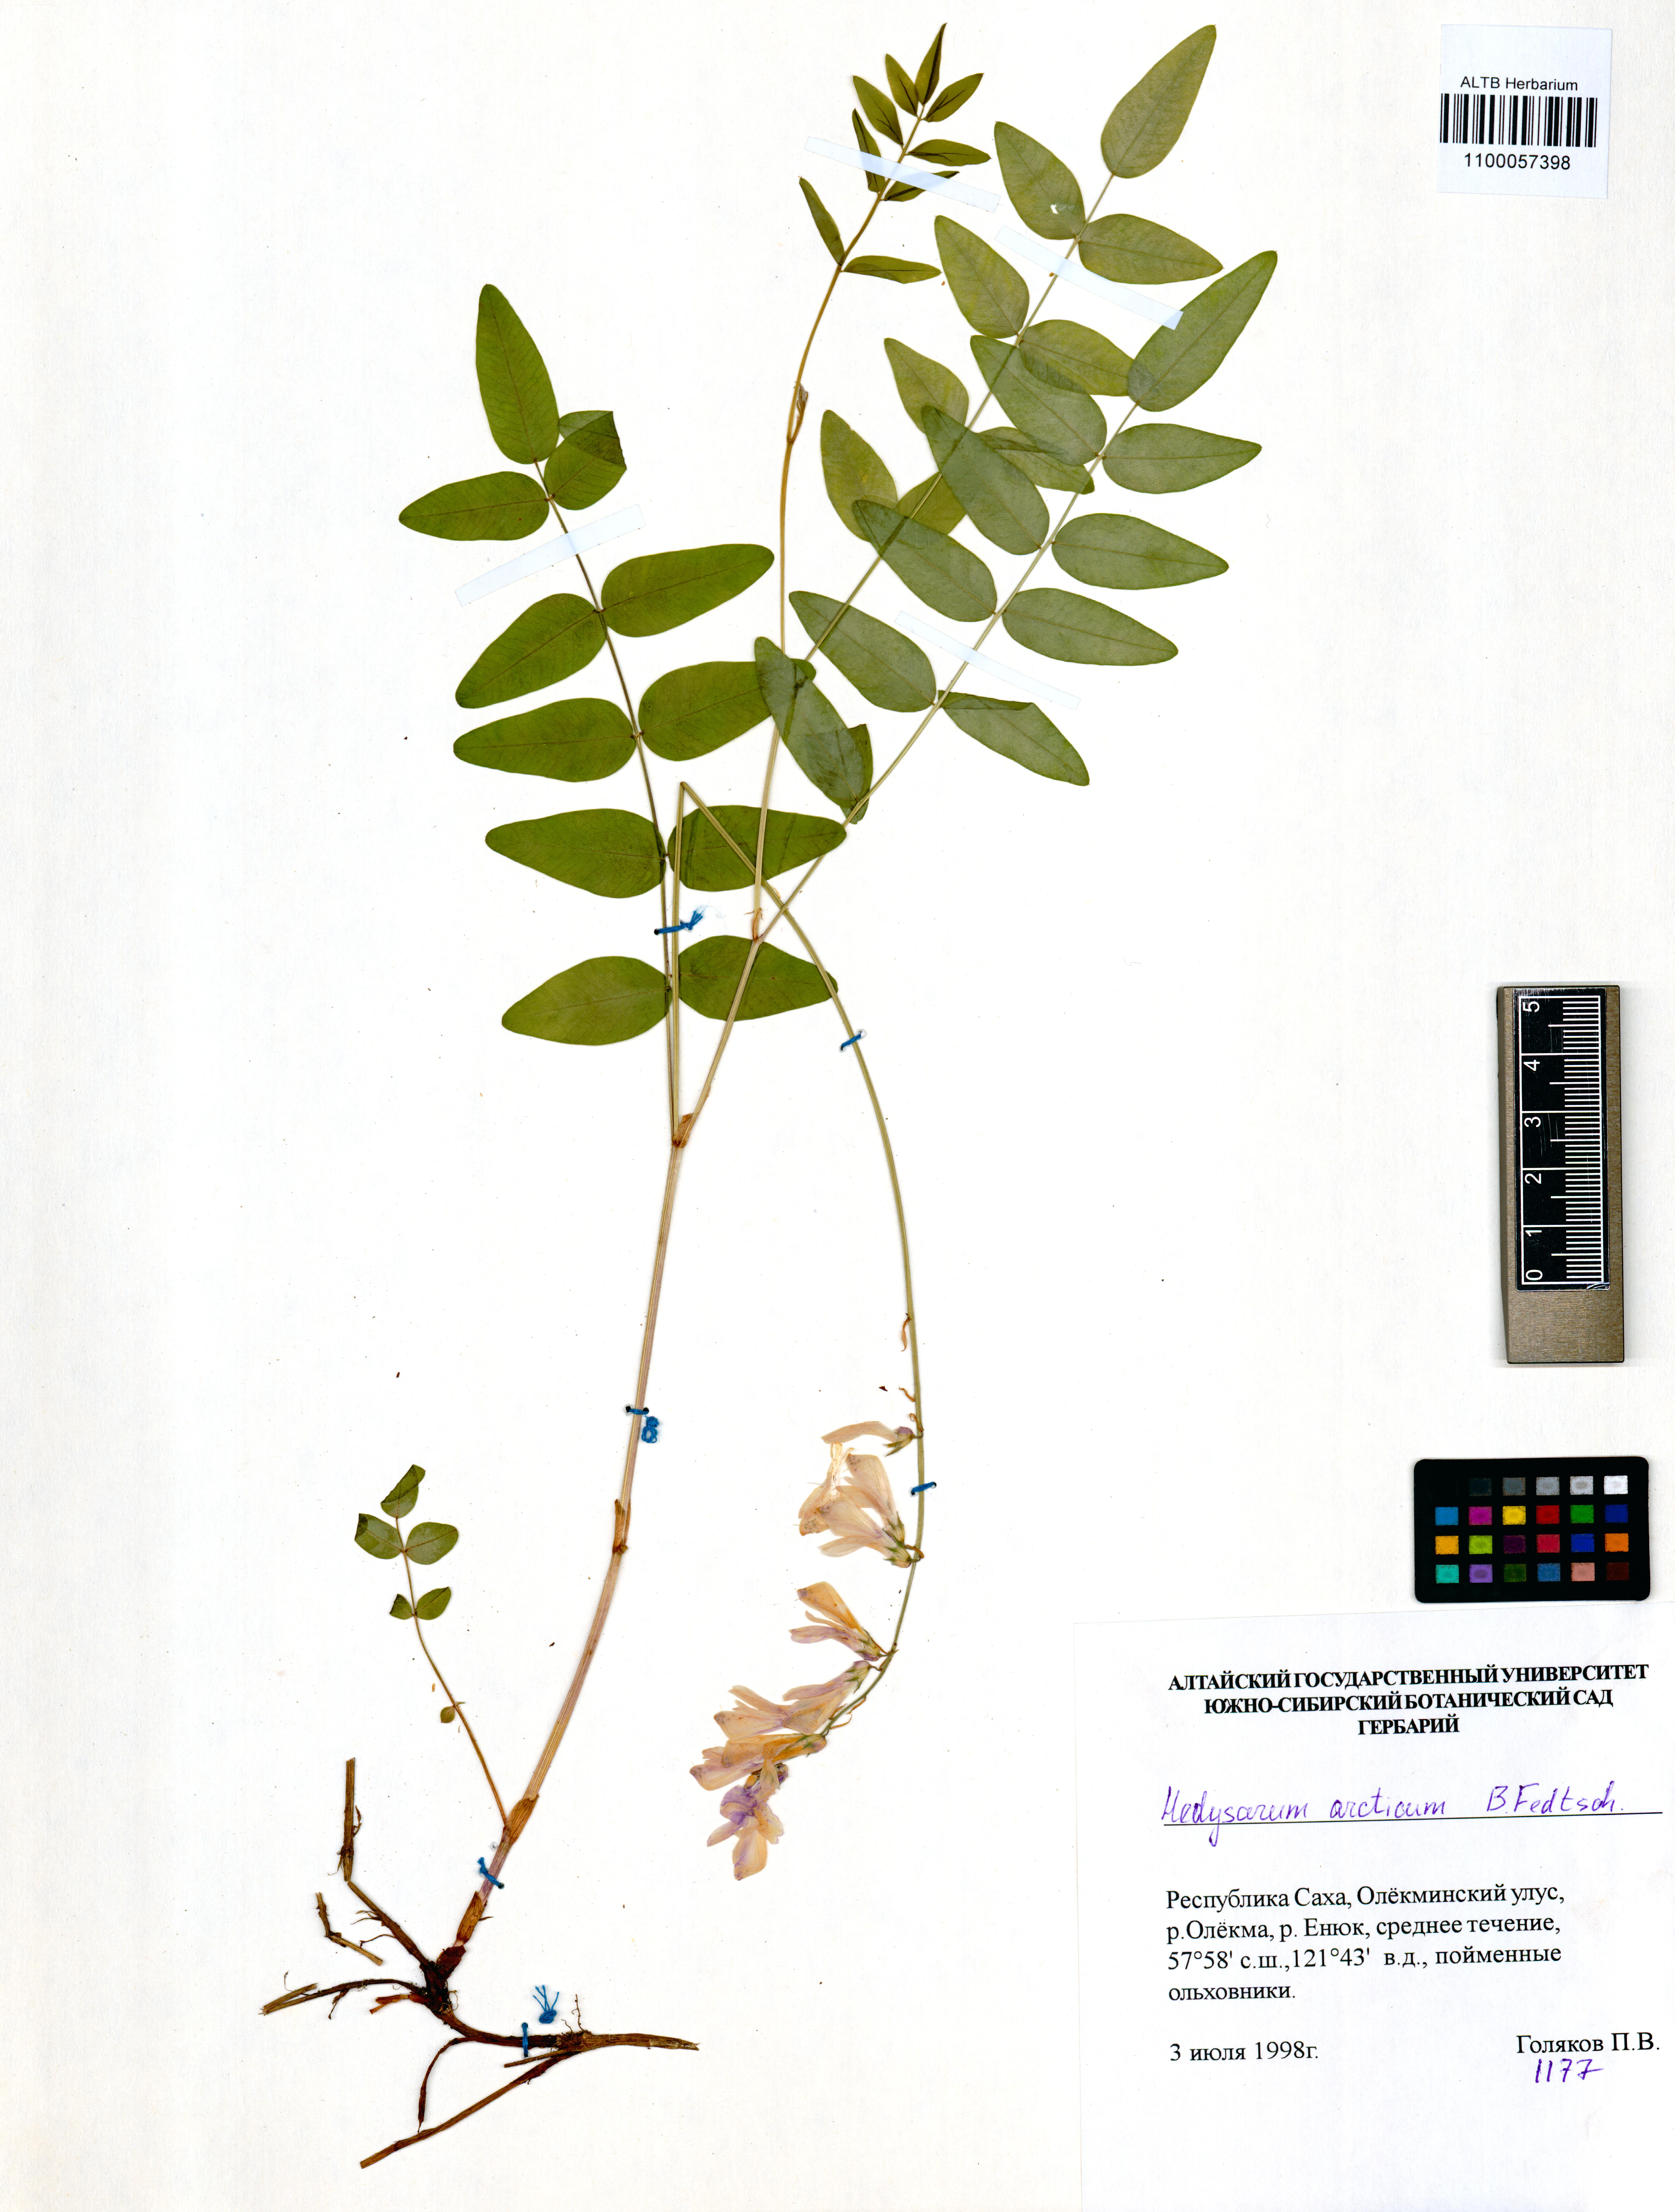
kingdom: Plantae
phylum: Tracheophyta
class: Magnoliopsida
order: Fabales
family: Fabaceae
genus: Hedysarum
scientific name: Hedysarum hedysaroides
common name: Alpine french-honeysuckle
